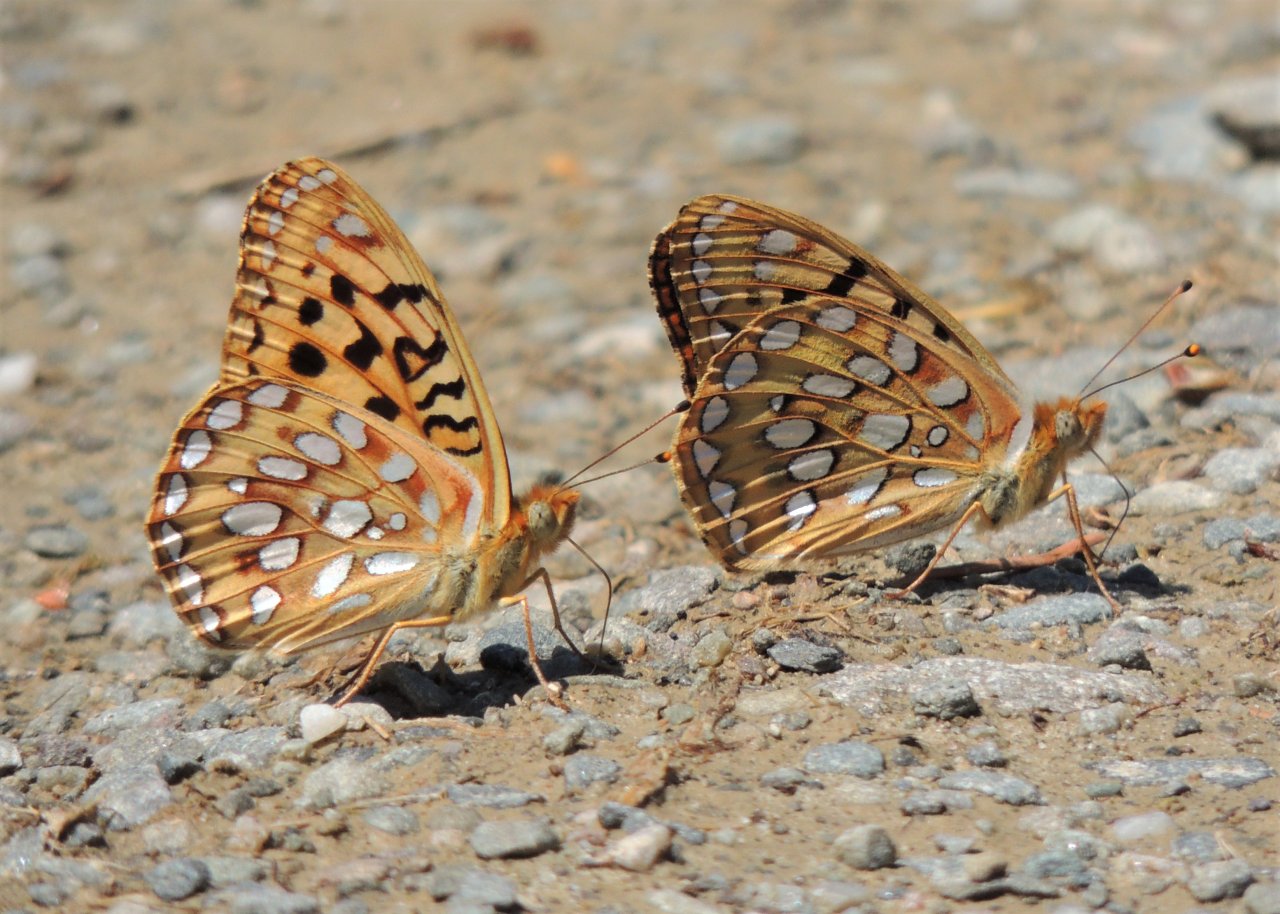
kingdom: Animalia
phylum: Arthropoda
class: Insecta
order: Lepidoptera
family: Nymphalidae
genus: Speyeria
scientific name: Speyeria zerene
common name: Zerene Fritillary
